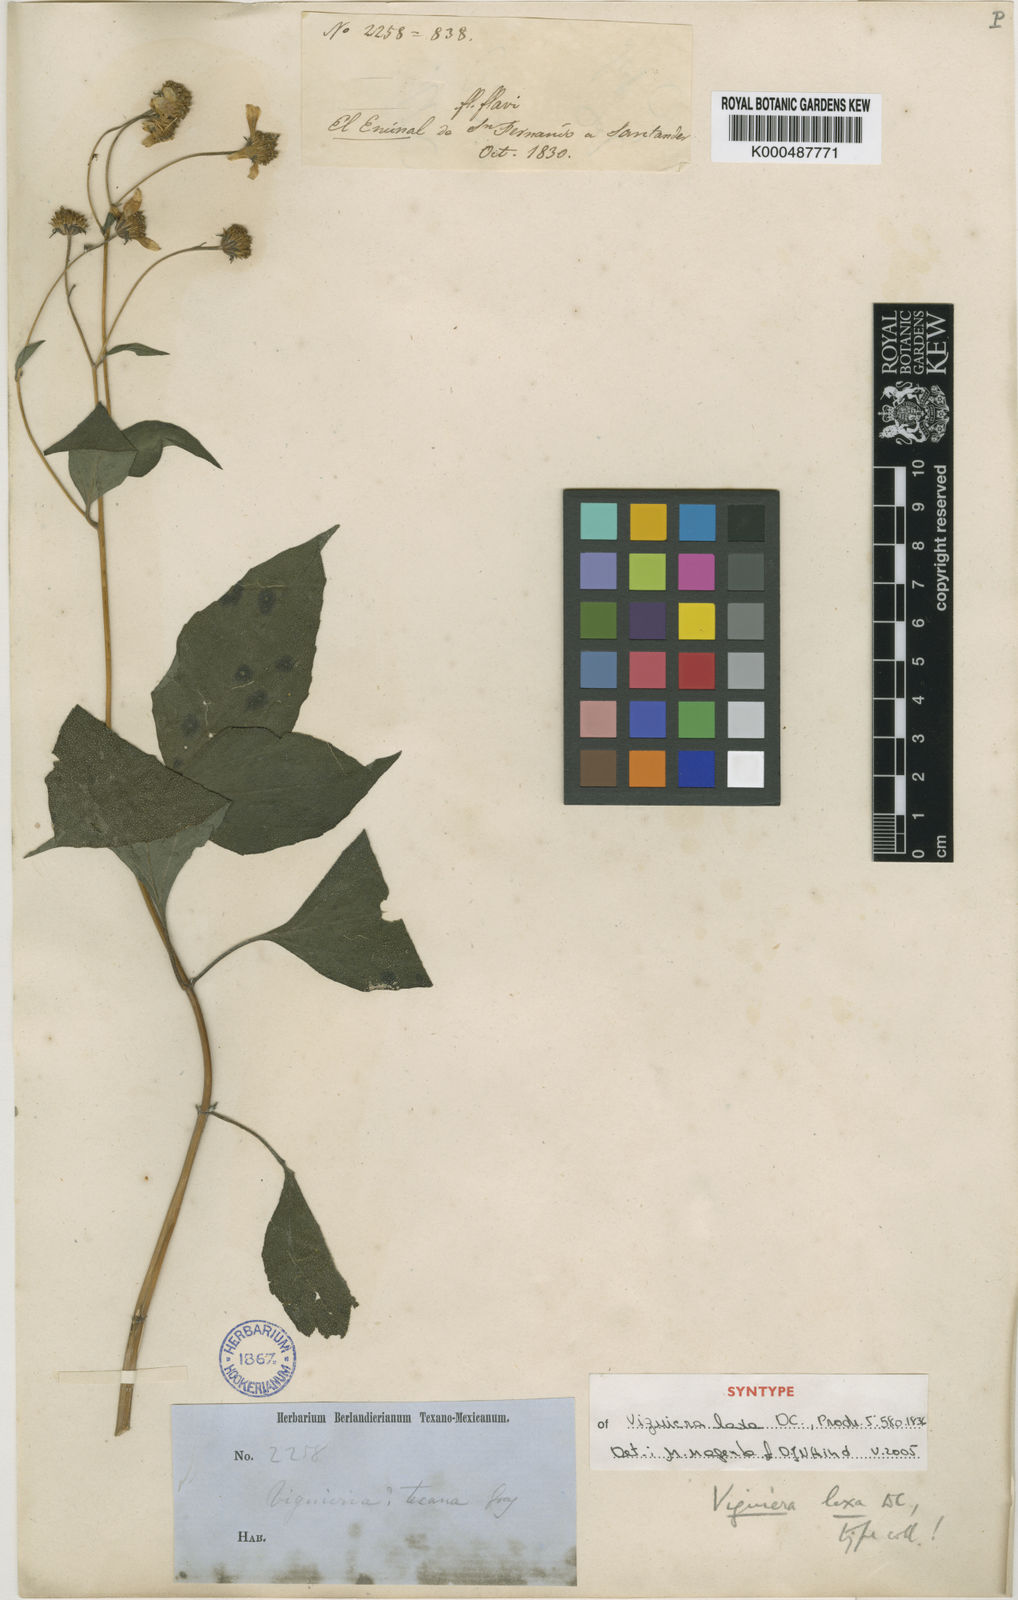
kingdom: Plantae
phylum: Tracheophyta
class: Magnoliopsida
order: Asterales
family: Asteraceae
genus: Viguiera
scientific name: Viguiera dentata
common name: Toothleaf
